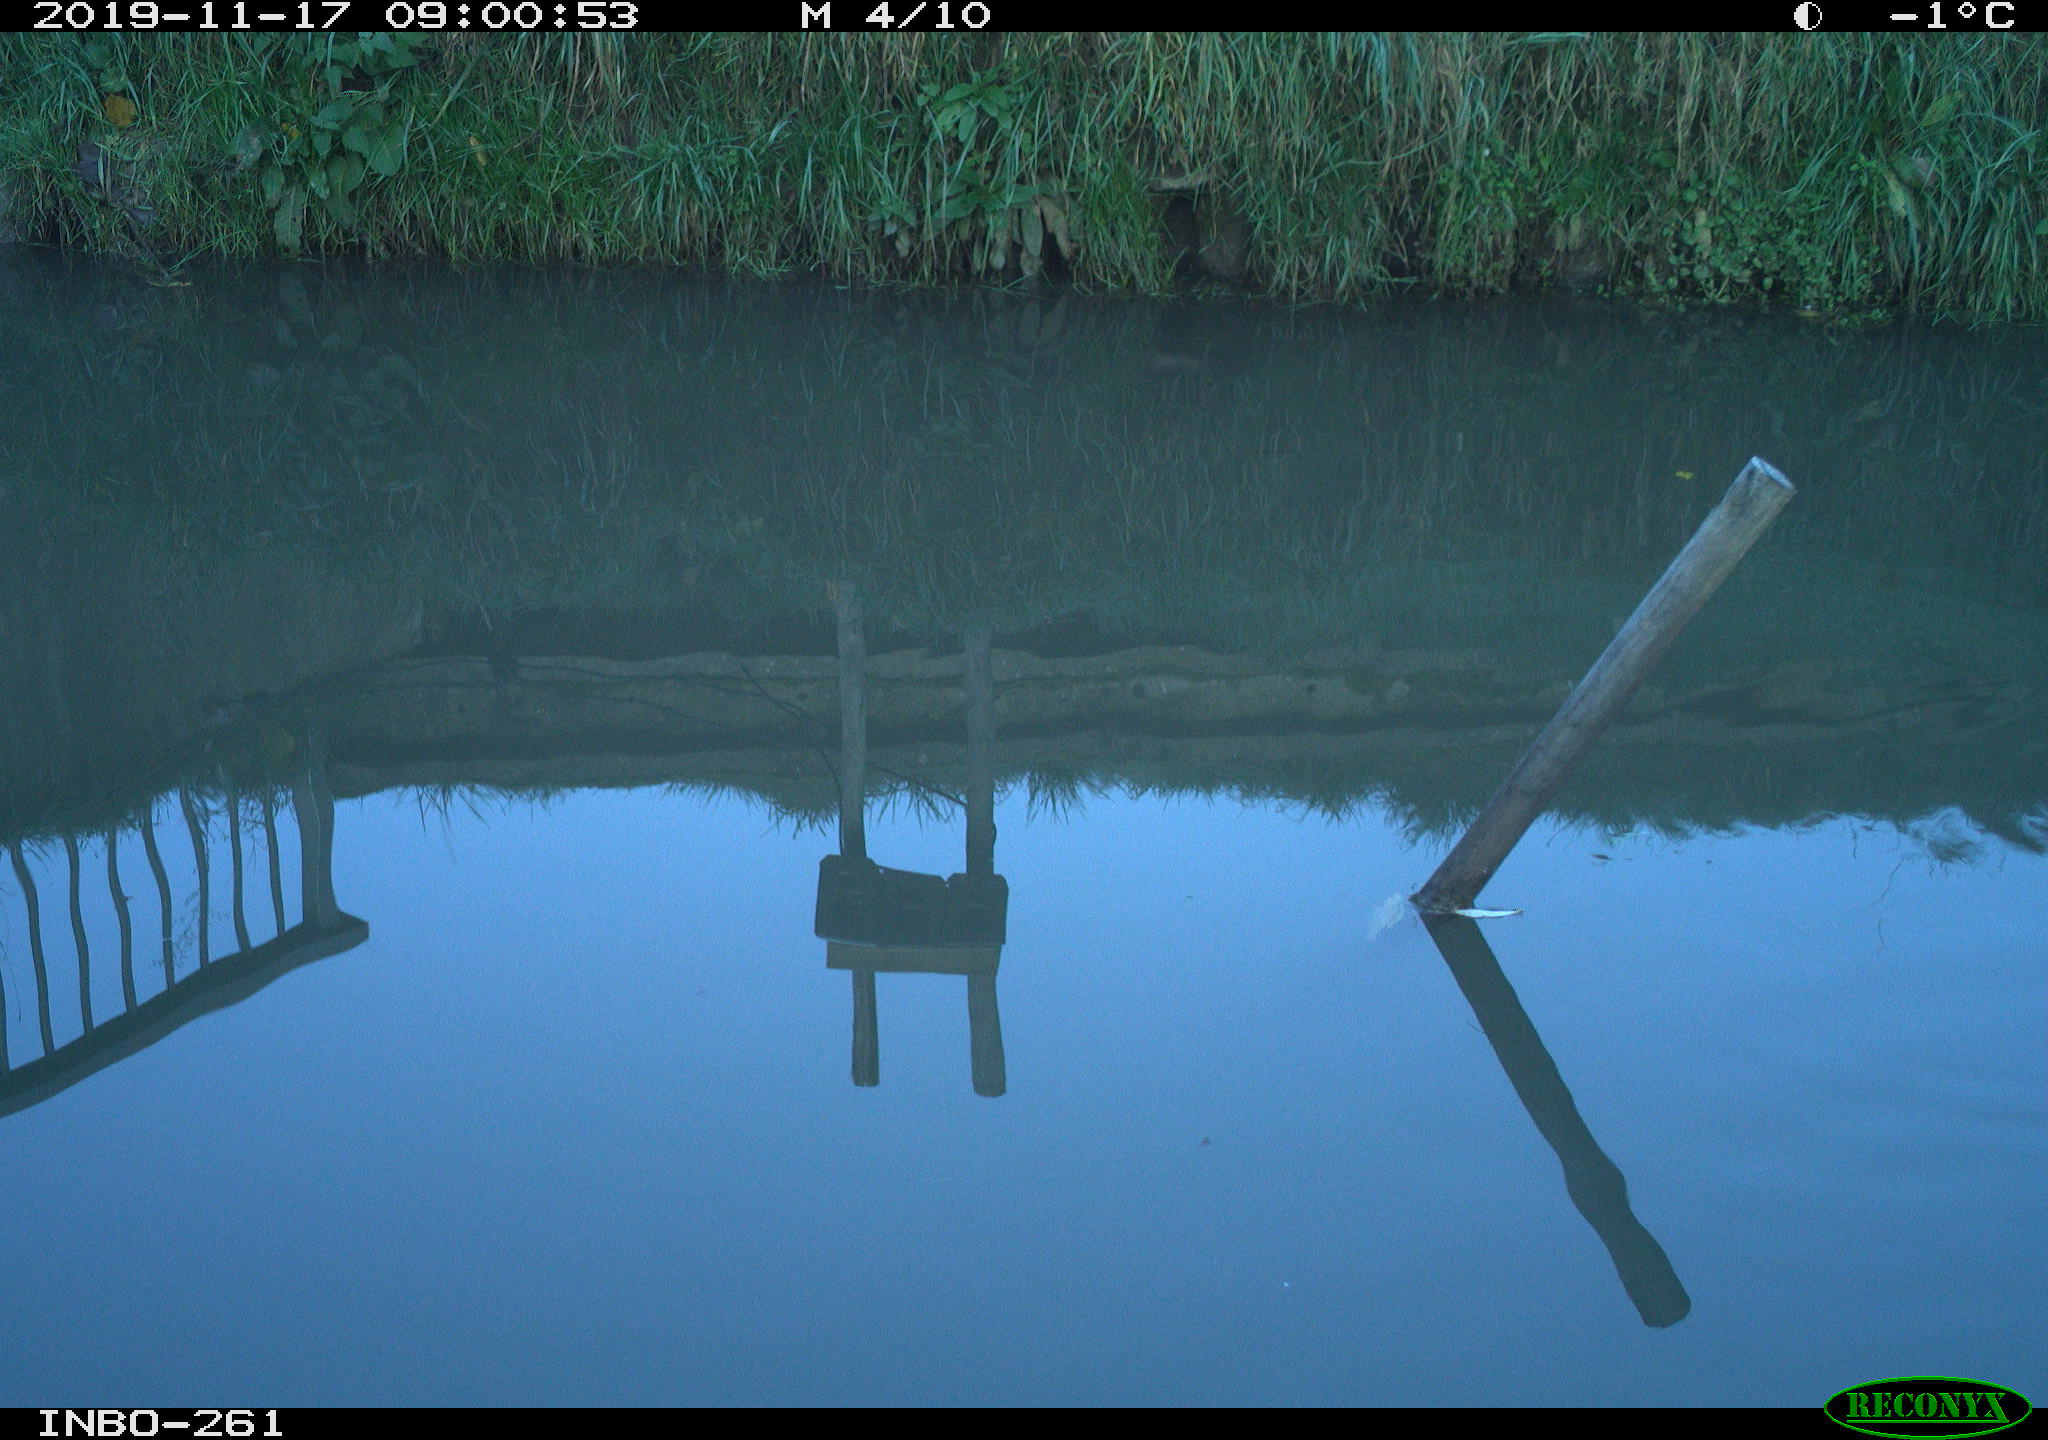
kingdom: Animalia
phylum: Chordata
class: Aves
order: Gruiformes
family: Rallidae
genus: Gallinula
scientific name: Gallinula chloropus
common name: Common moorhen
